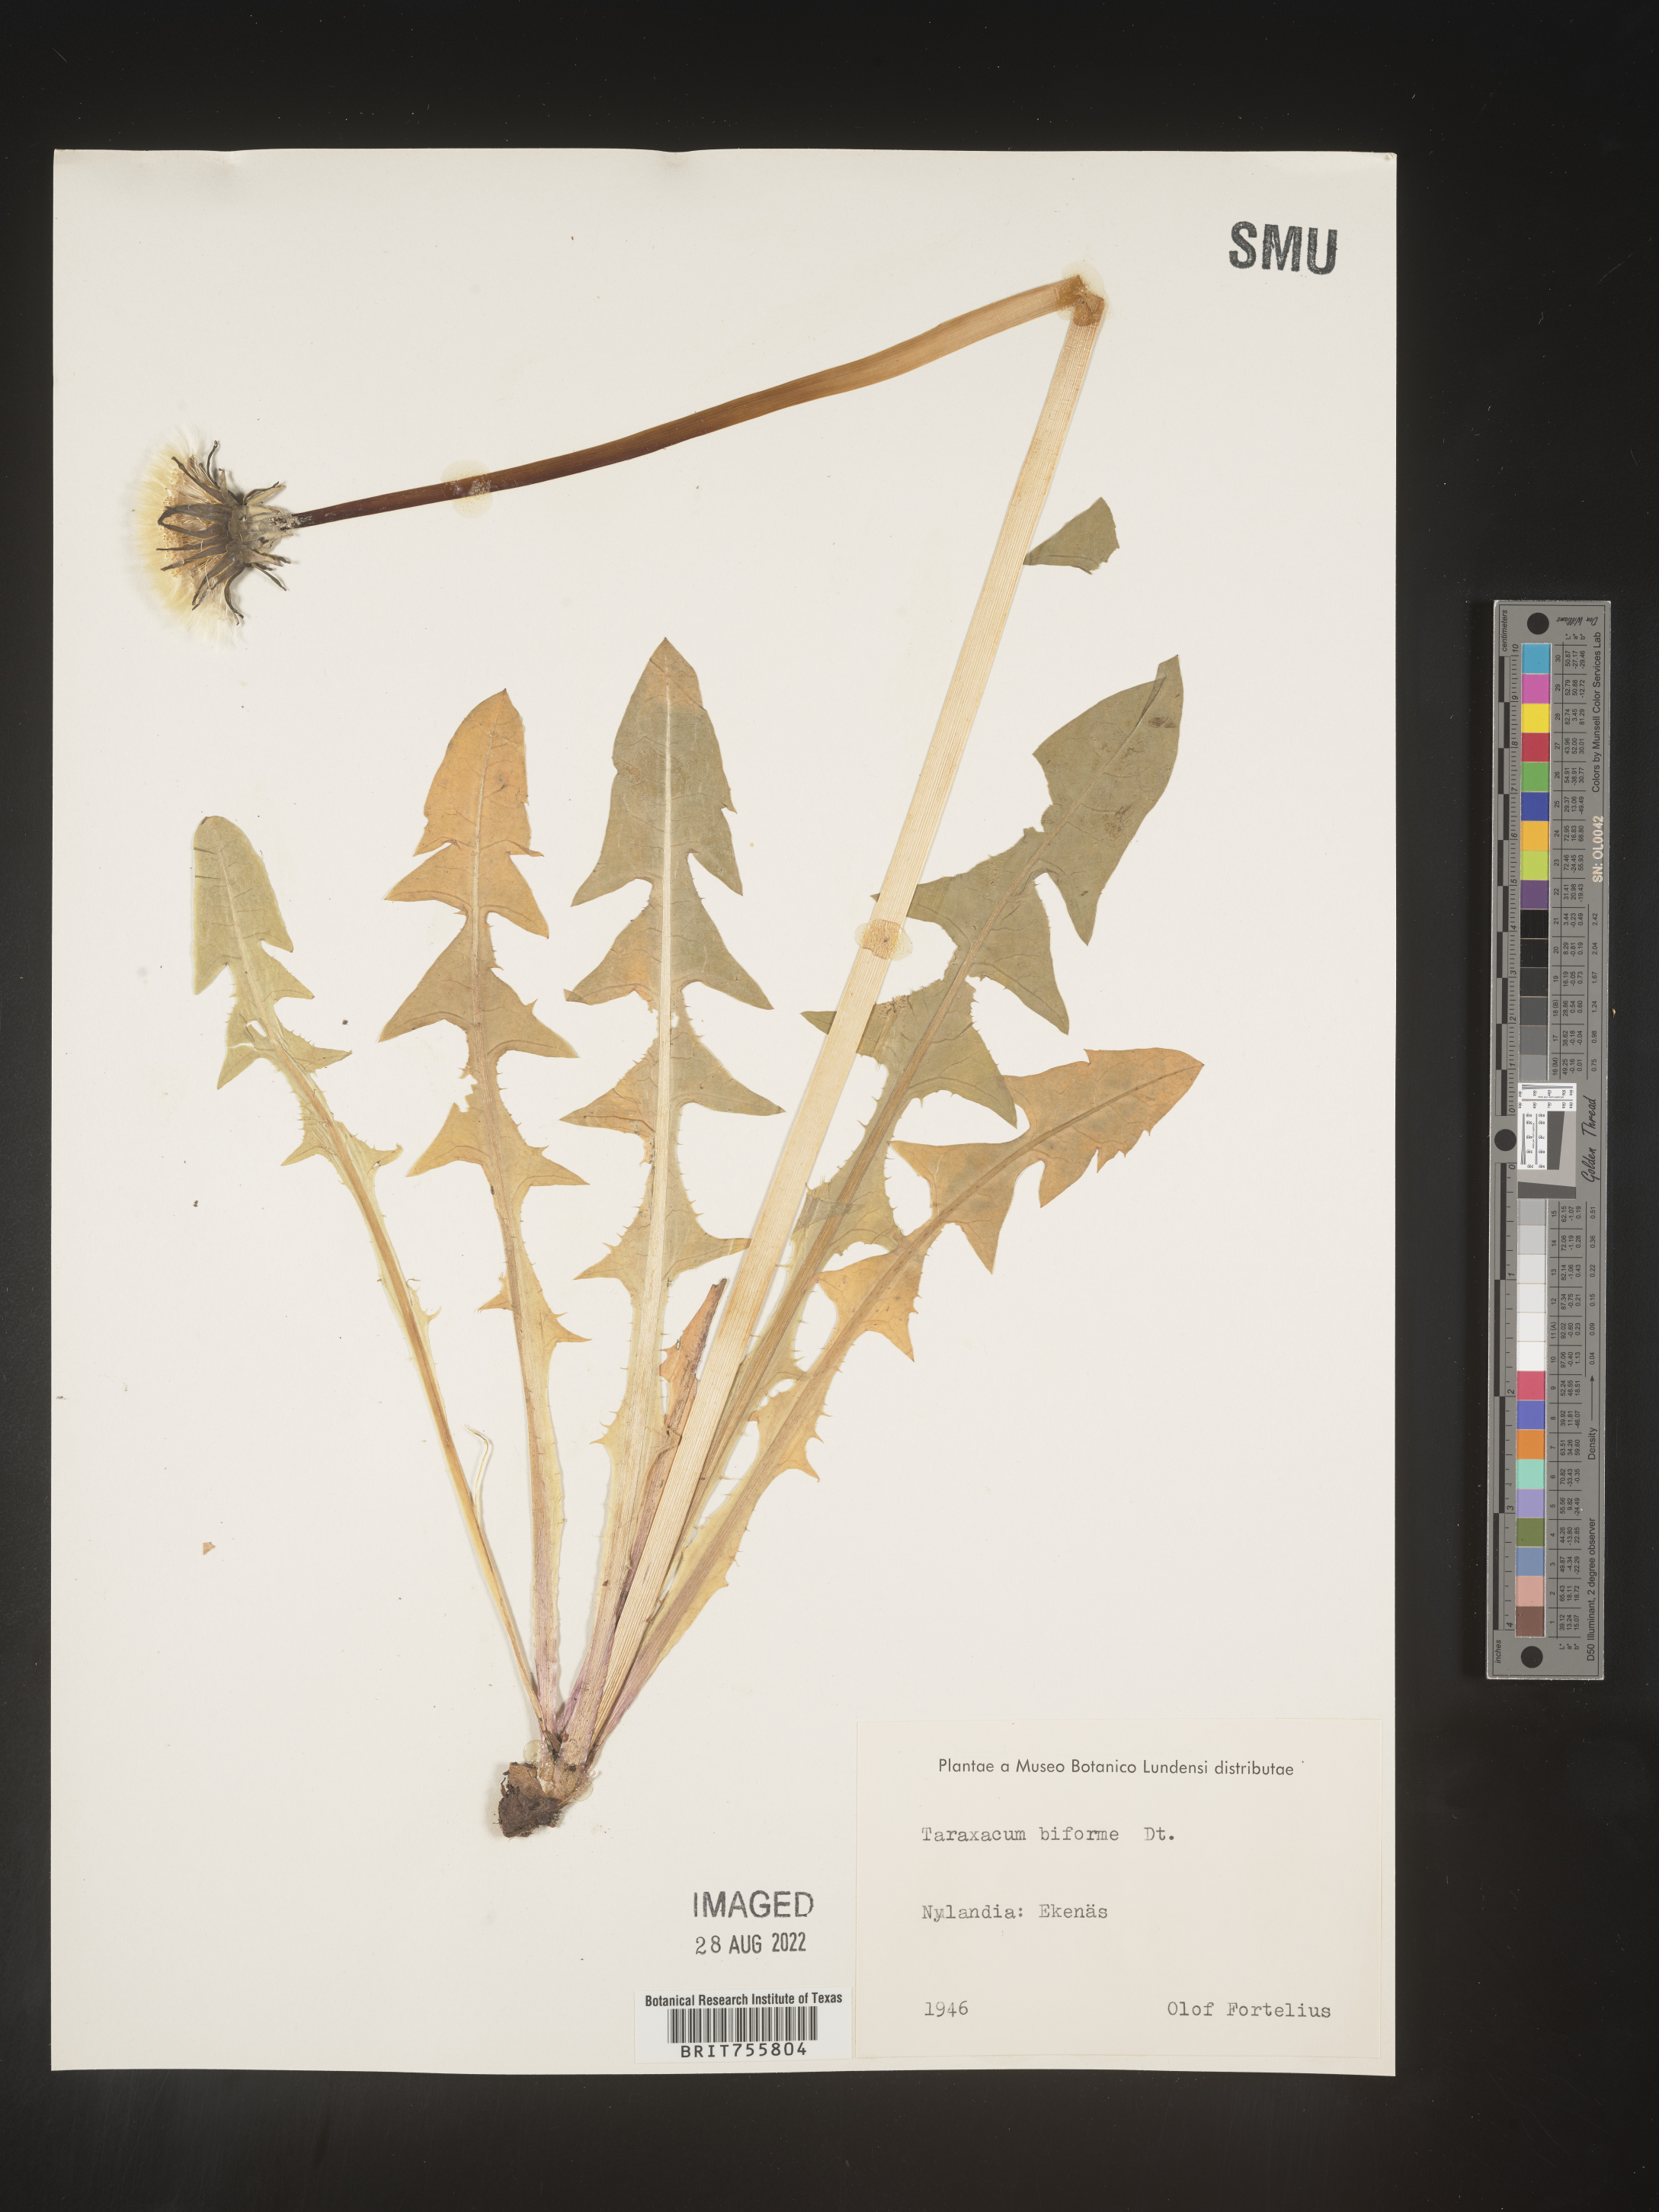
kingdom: Plantae
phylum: Tracheophyta
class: Magnoliopsida
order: Asterales
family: Asteraceae
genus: Taraxacum
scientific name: Taraxacum
